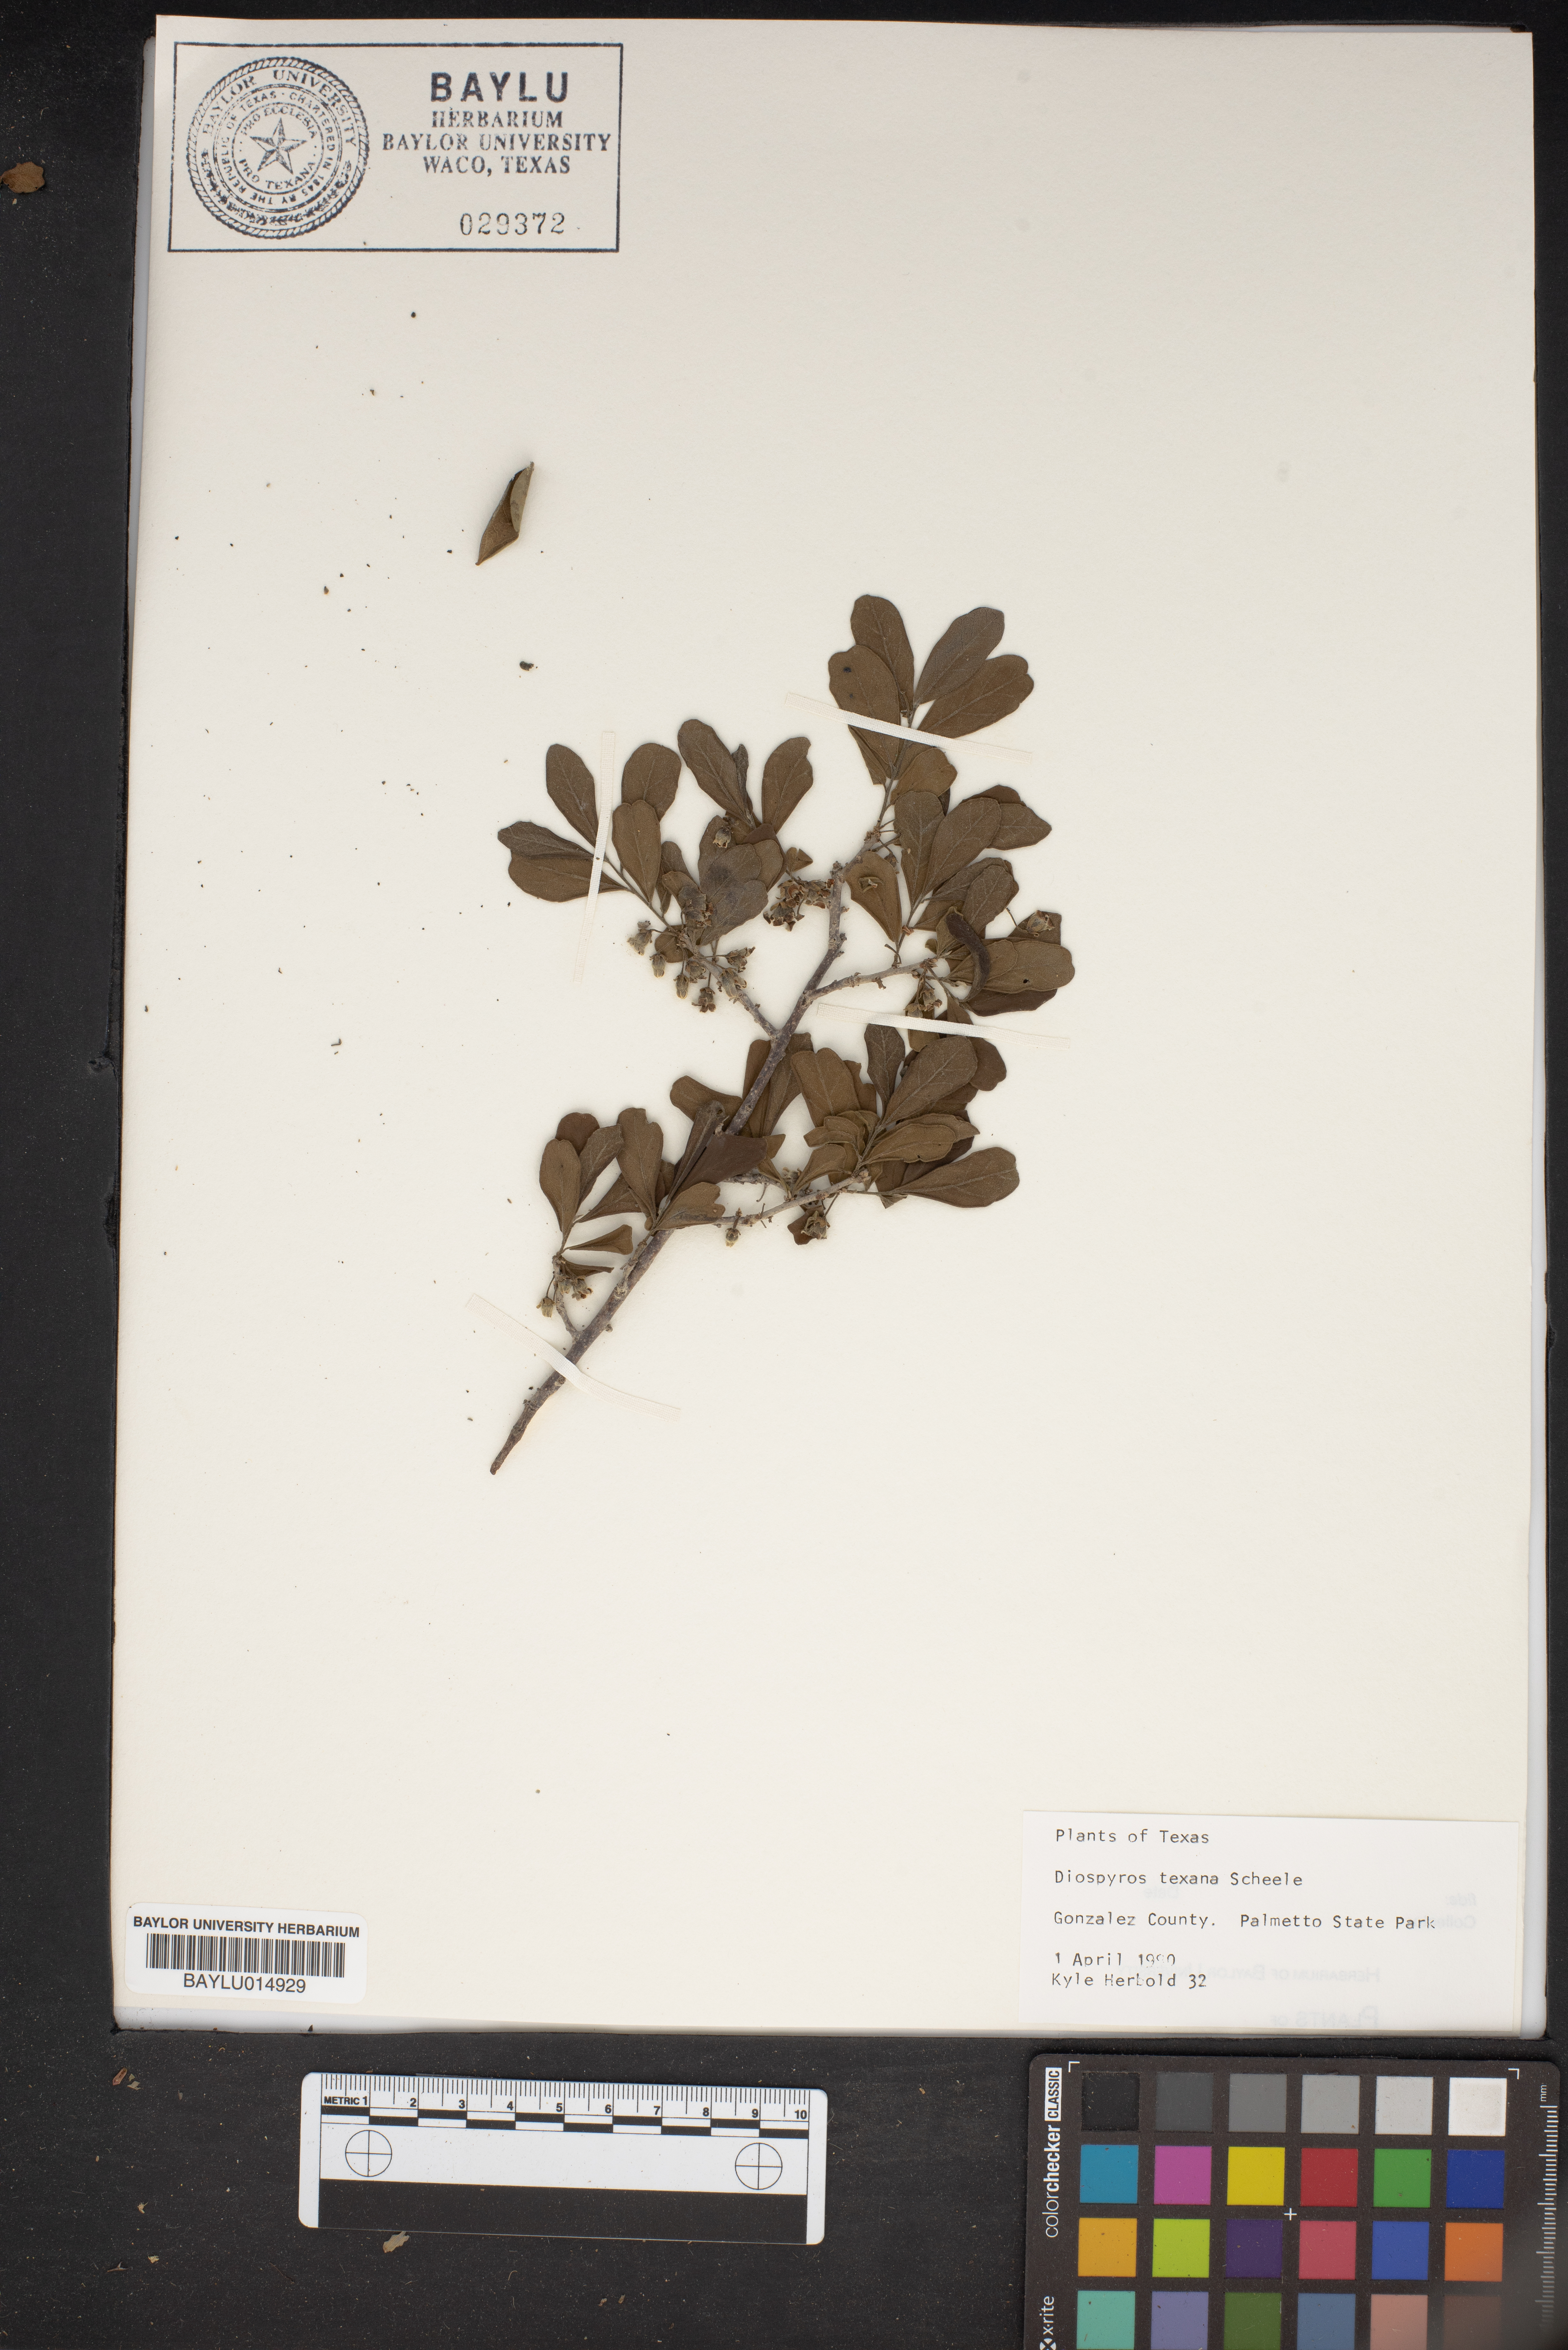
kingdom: Plantae
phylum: Tracheophyta
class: Magnoliopsida
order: Ericales
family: Ebenaceae
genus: Diospyros
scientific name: Diospyros texana
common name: Texas persimmon
